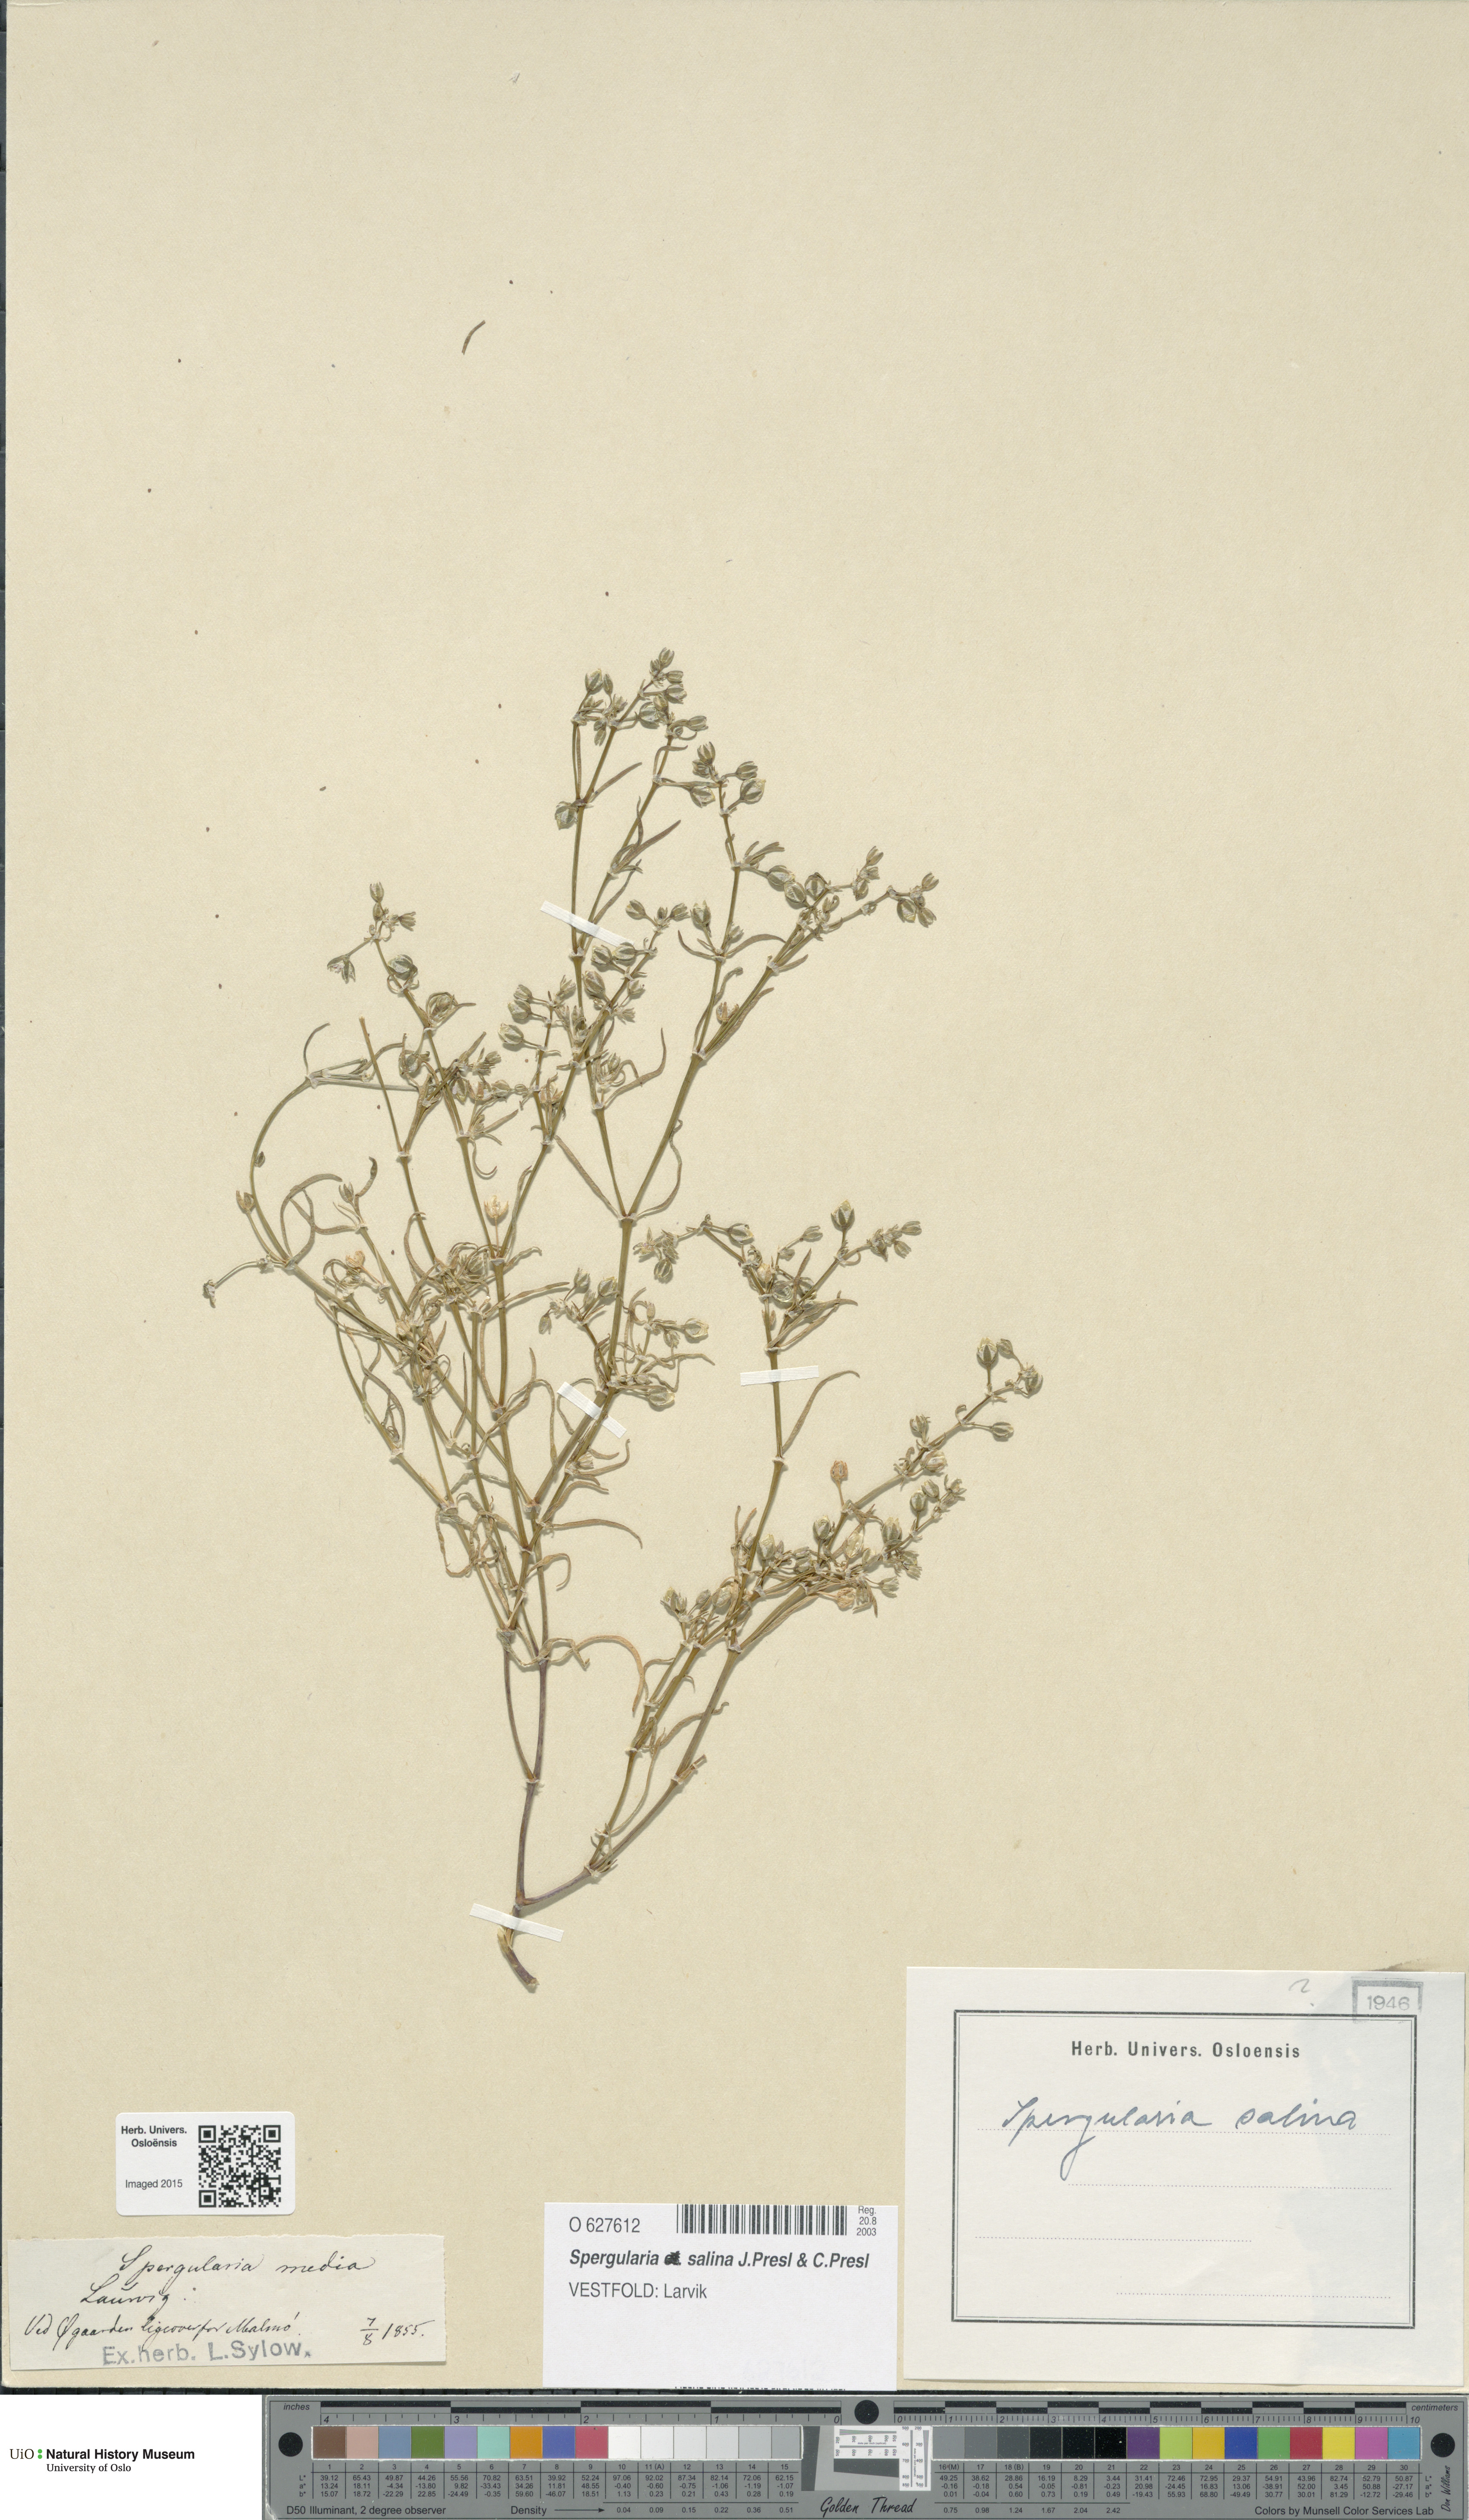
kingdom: Plantae
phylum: Tracheophyta
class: Magnoliopsida
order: Caryophyllales
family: Caryophyllaceae
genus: Spergularia
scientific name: Spergularia marina
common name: Lesser sea-spurrey
